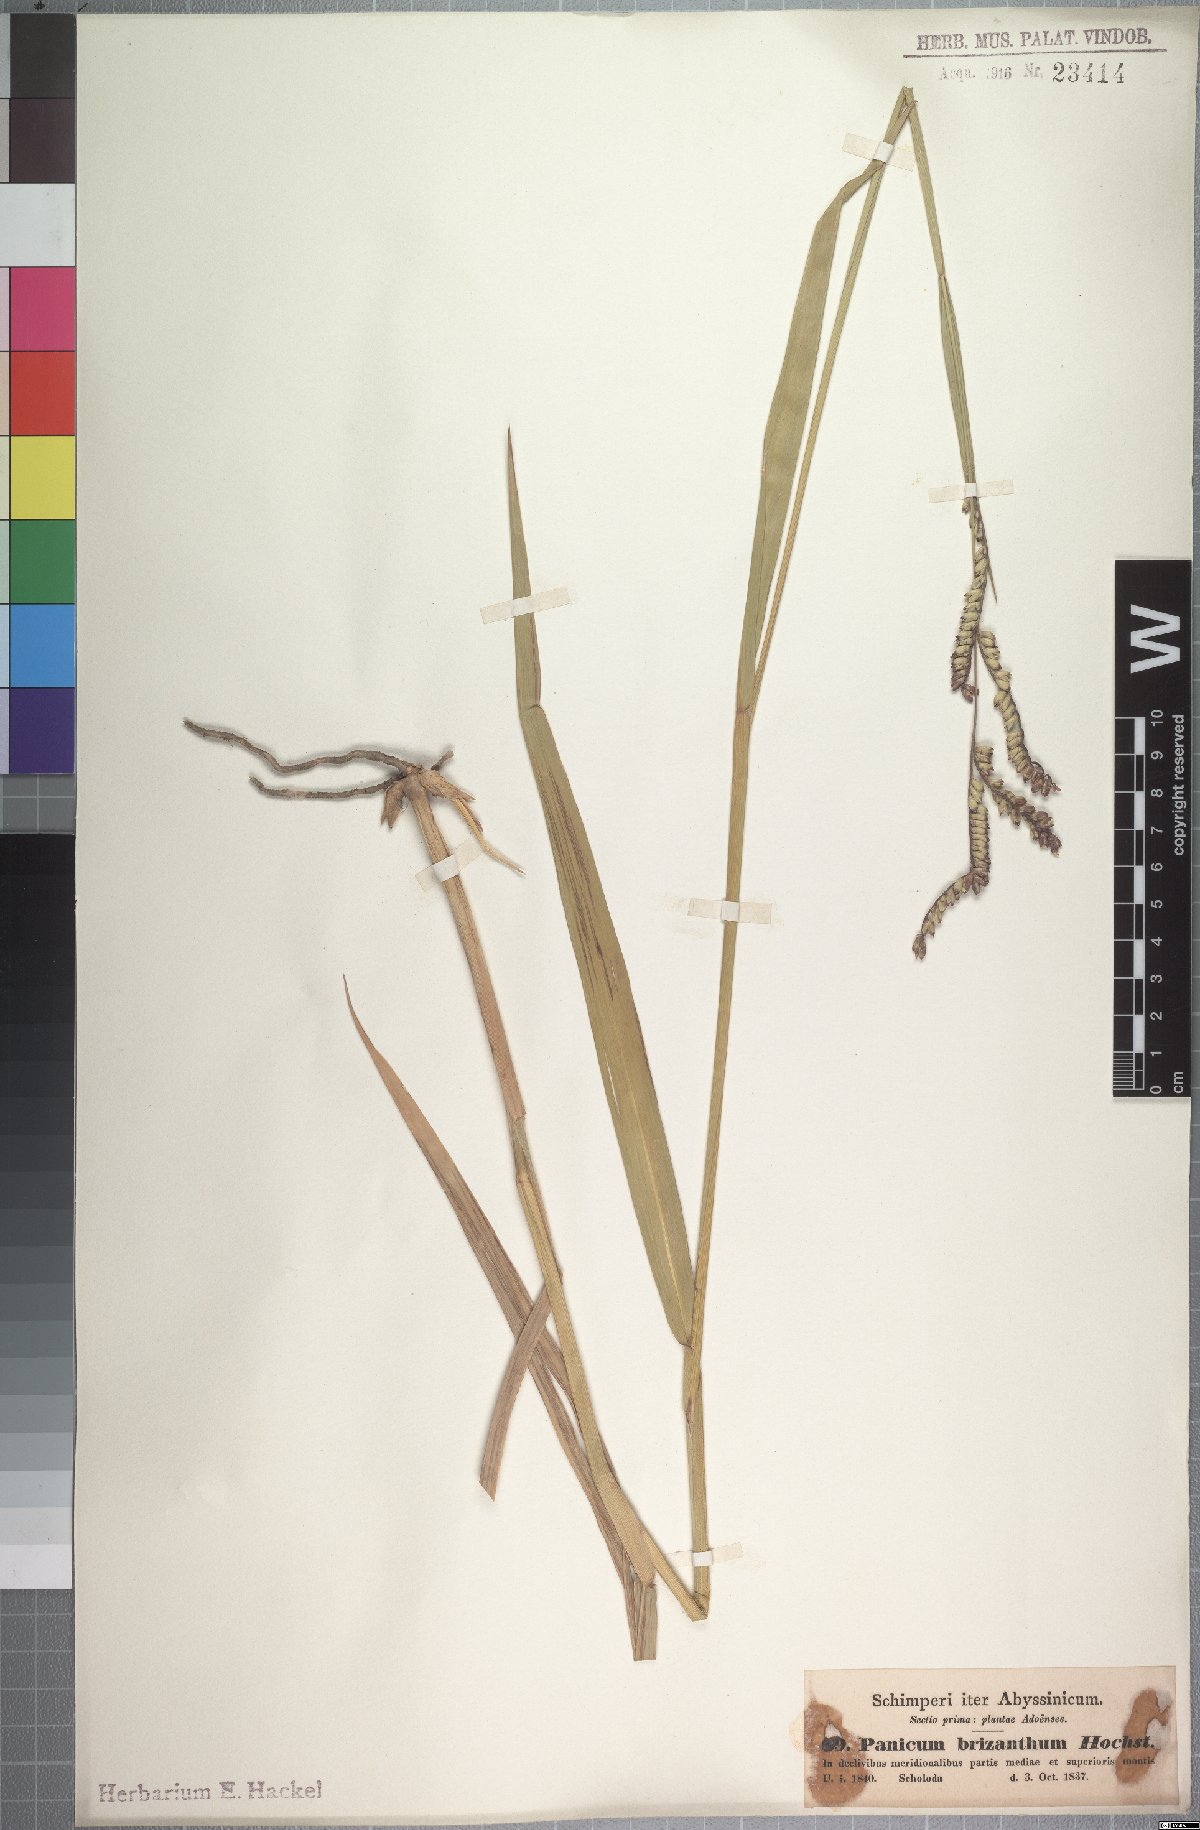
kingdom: Plantae
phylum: Tracheophyta
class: Liliopsida
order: Poales
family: Poaceae
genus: Urochloa
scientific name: Urochloa brizantha
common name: Palisade signalgrass
